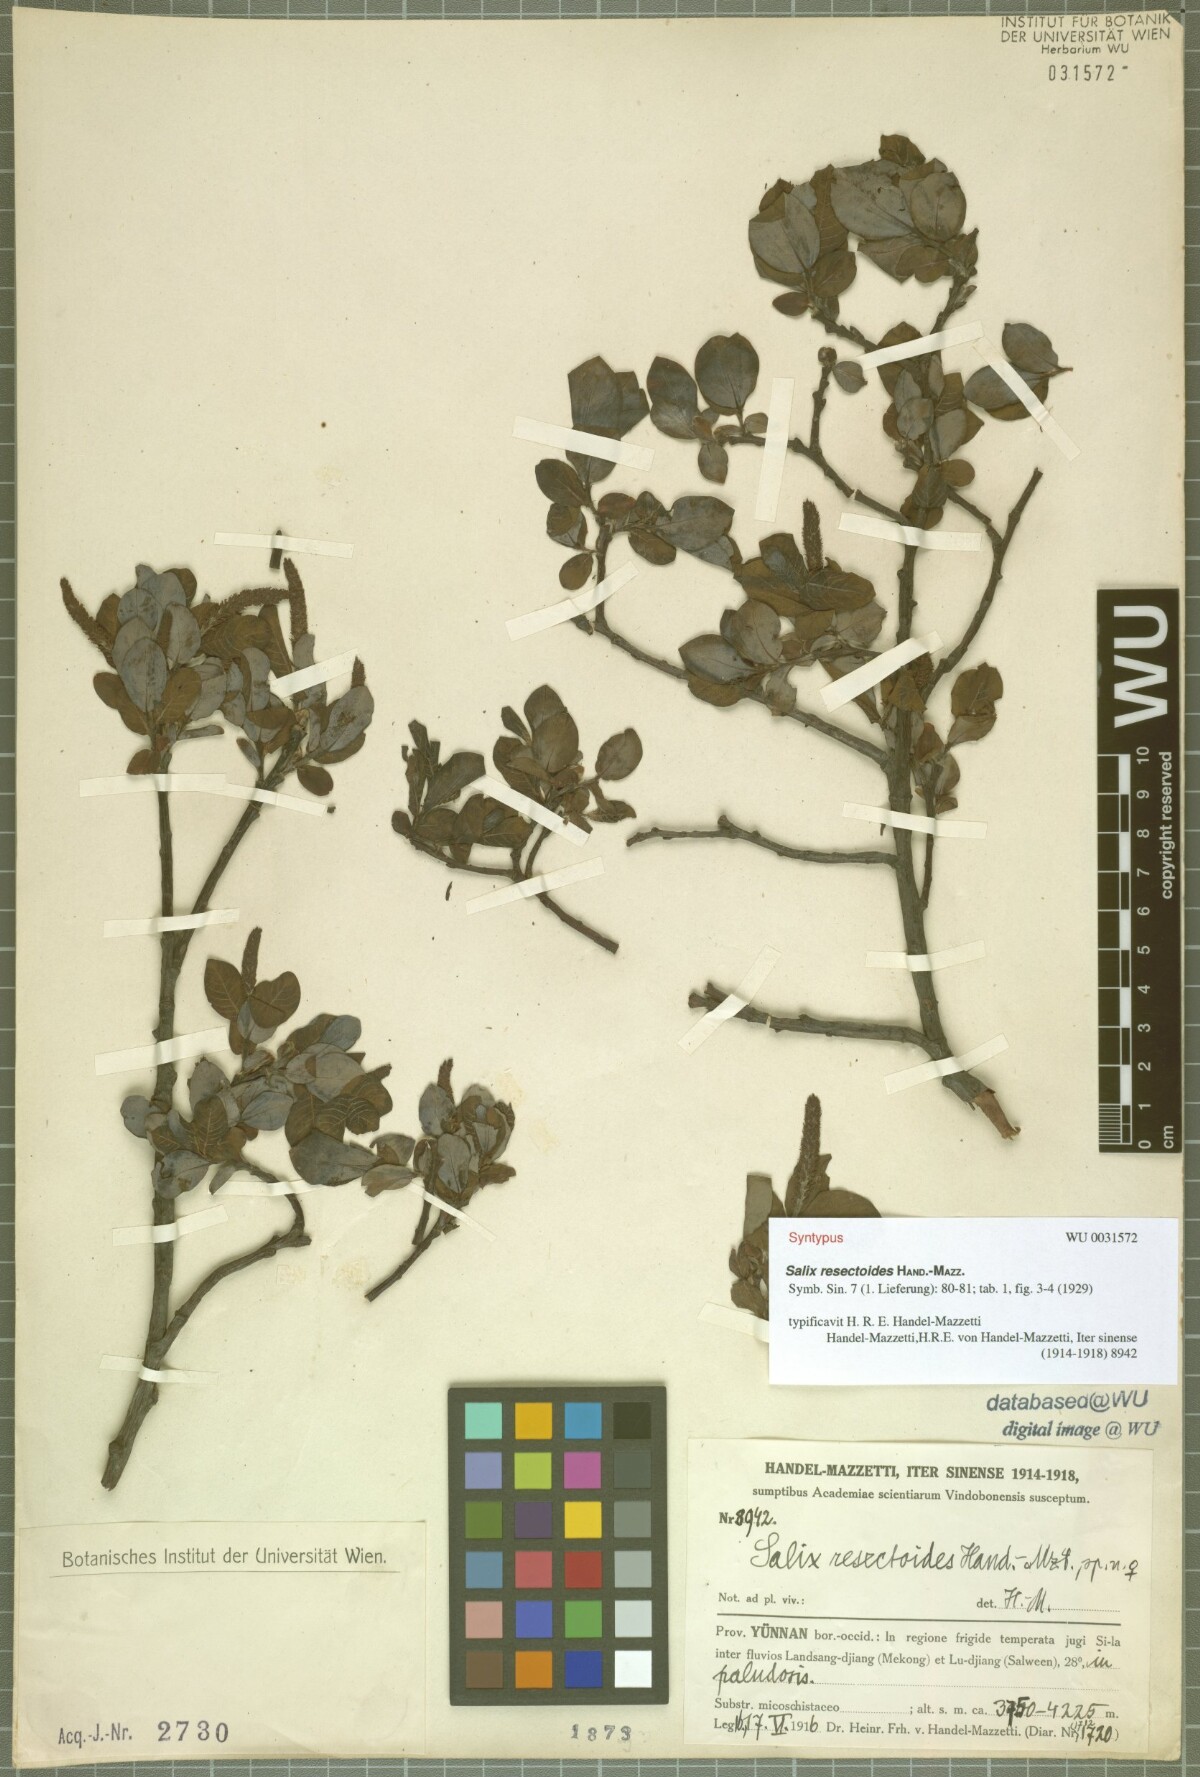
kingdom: Plantae
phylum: Tracheophyta
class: Magnoliopsida
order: Malpighiales
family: Salicaceae
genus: Salix
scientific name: Salix resectoides
